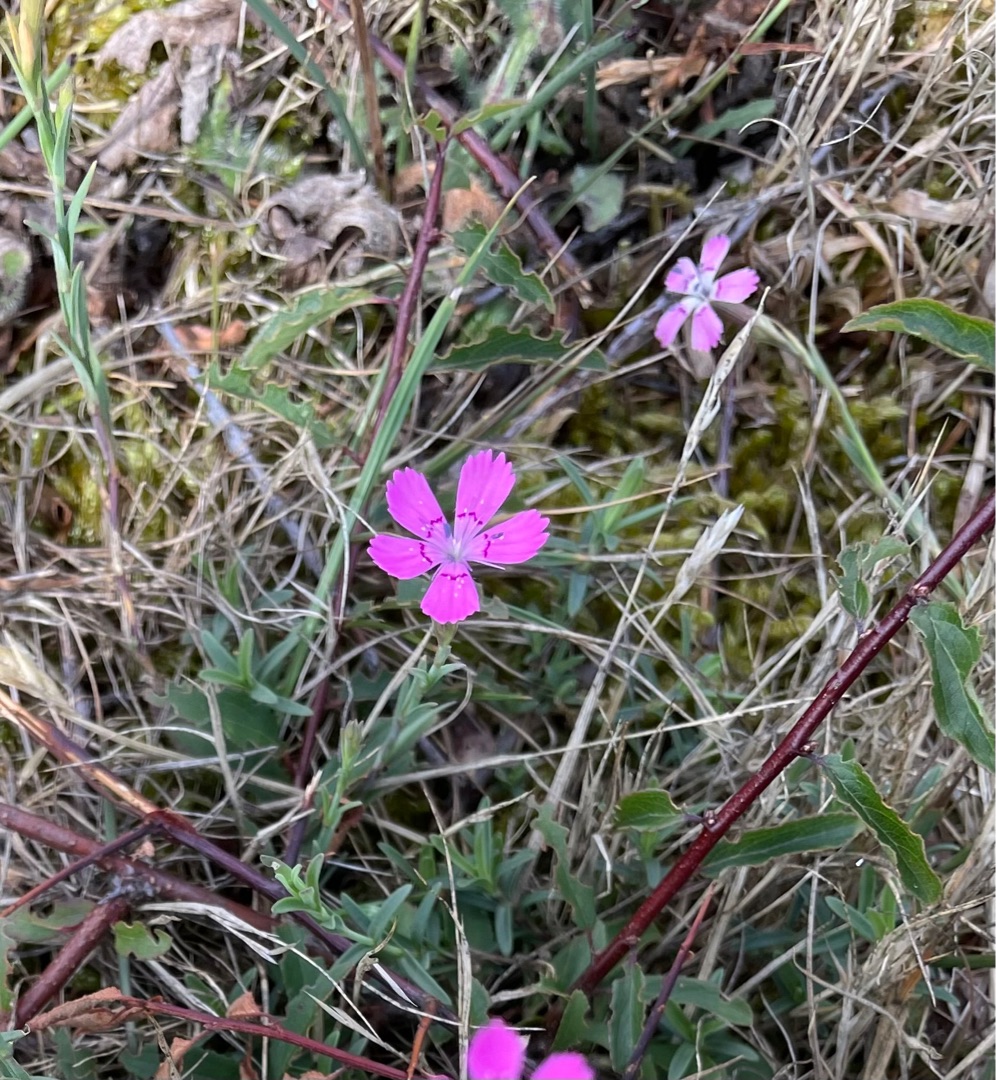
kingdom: Plantae
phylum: Tracheophyta
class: Magnoliopsida
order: Caryophyllales
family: Caryophyllaceae
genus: Dianthus
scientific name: Dianthus deltoides
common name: Bakke-nellike
